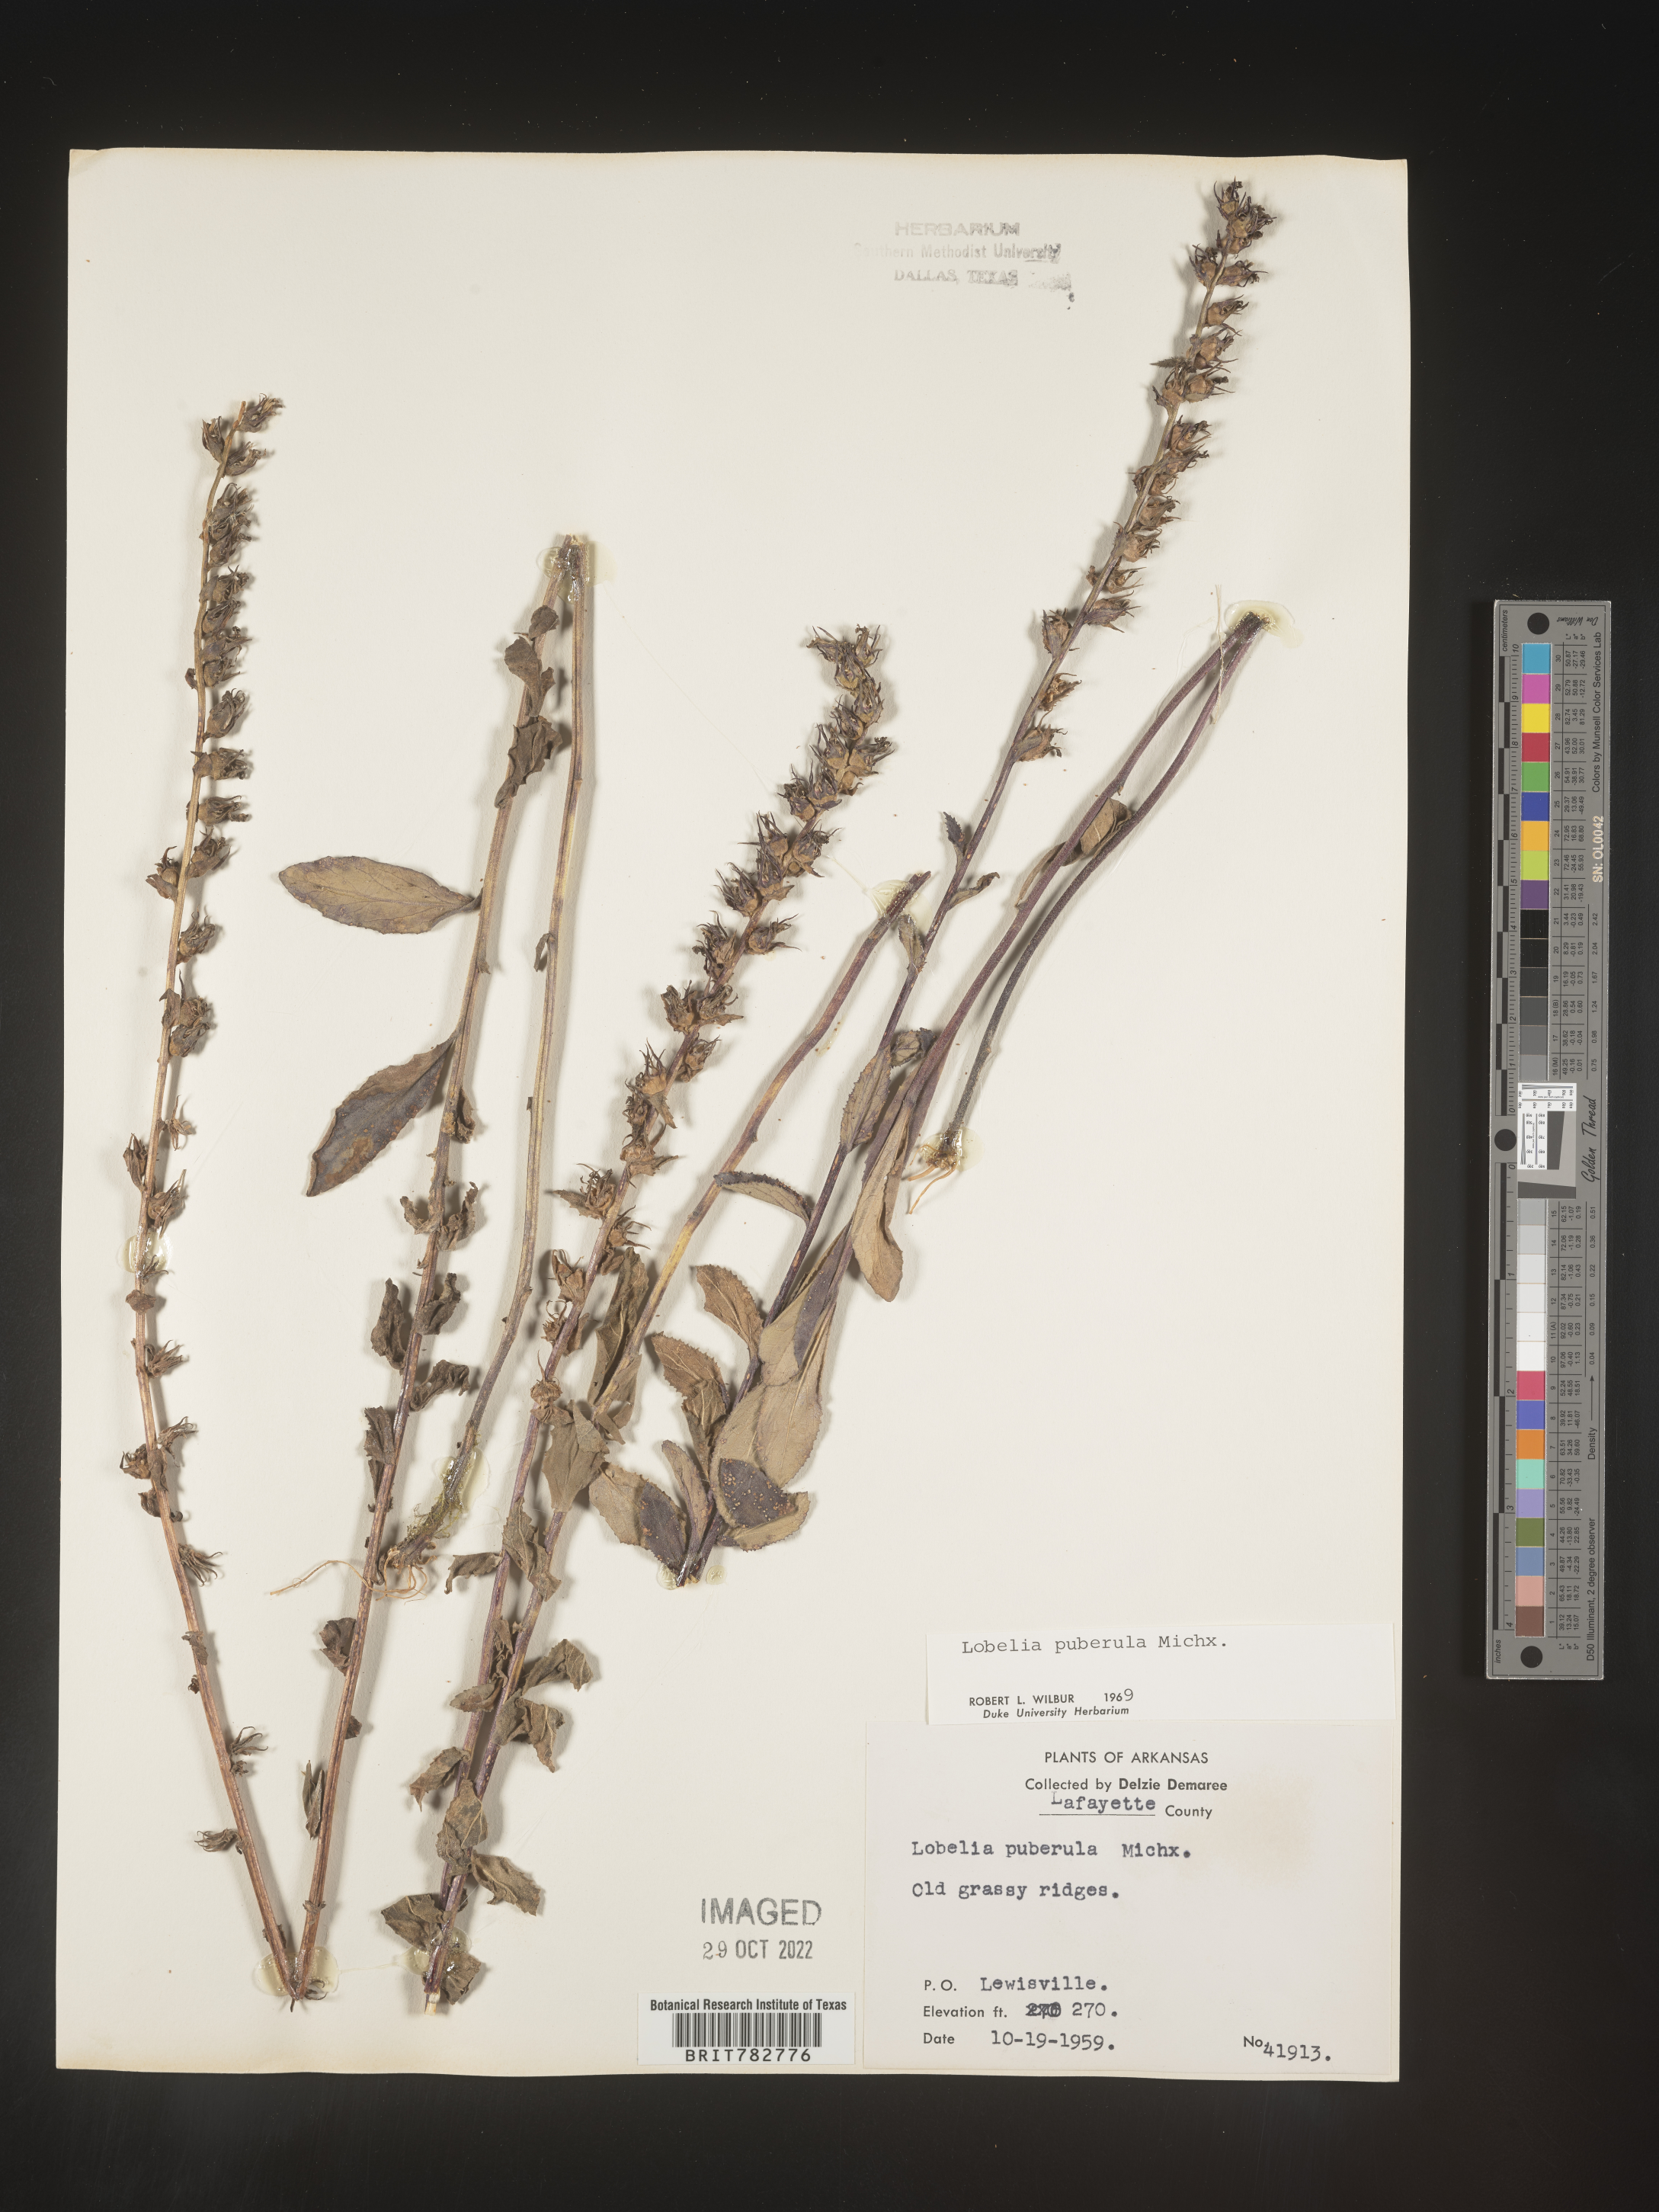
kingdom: Plantae
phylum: Tracheophyta
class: Magnoliopsida
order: Asterales
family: Campanulaceae
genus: Lobelia
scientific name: Lobelia puberula
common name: Purple dewdrop
